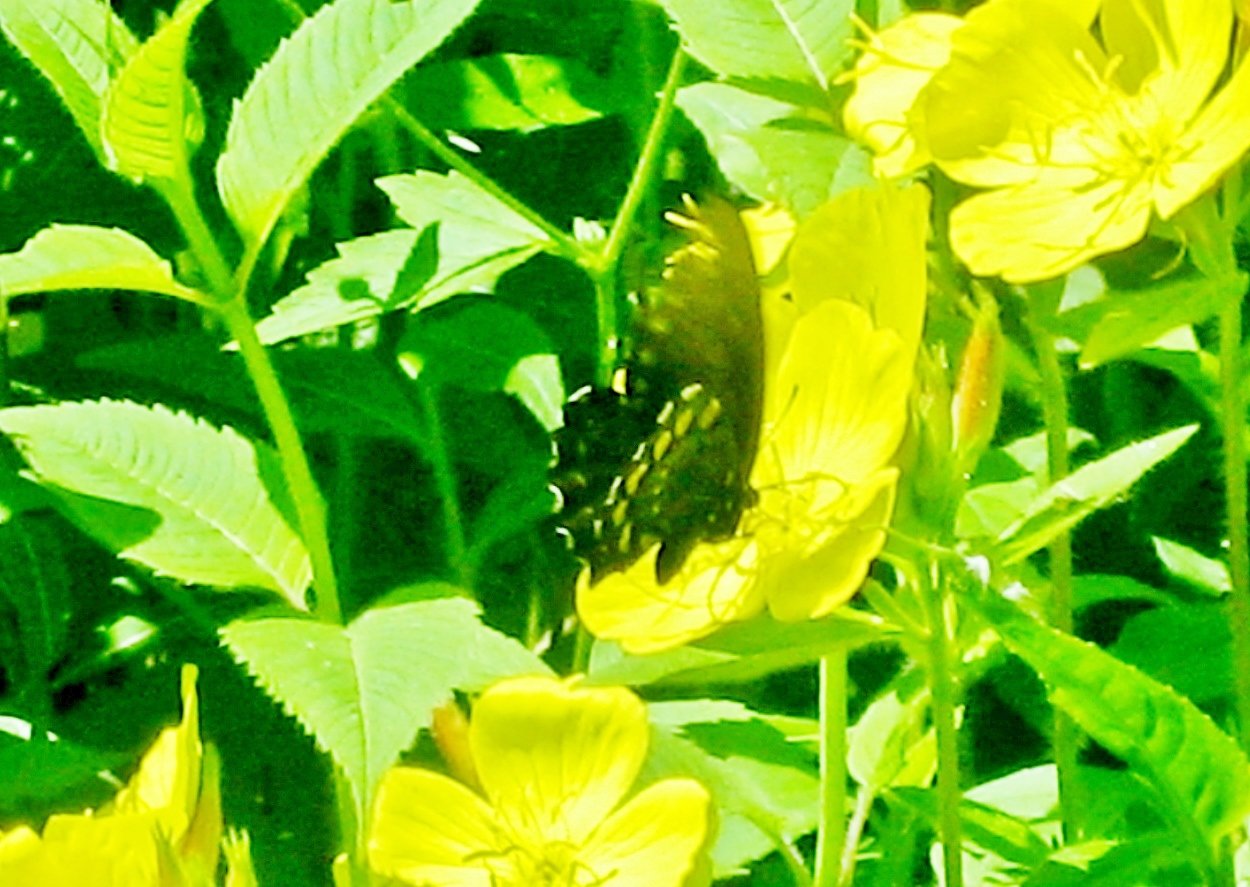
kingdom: Animalia
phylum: Arthropoda
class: Insecta
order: Lepidoptera
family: Papilionidae
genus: Battus
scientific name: Battus philenor
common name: Pipevine Swallowtail
